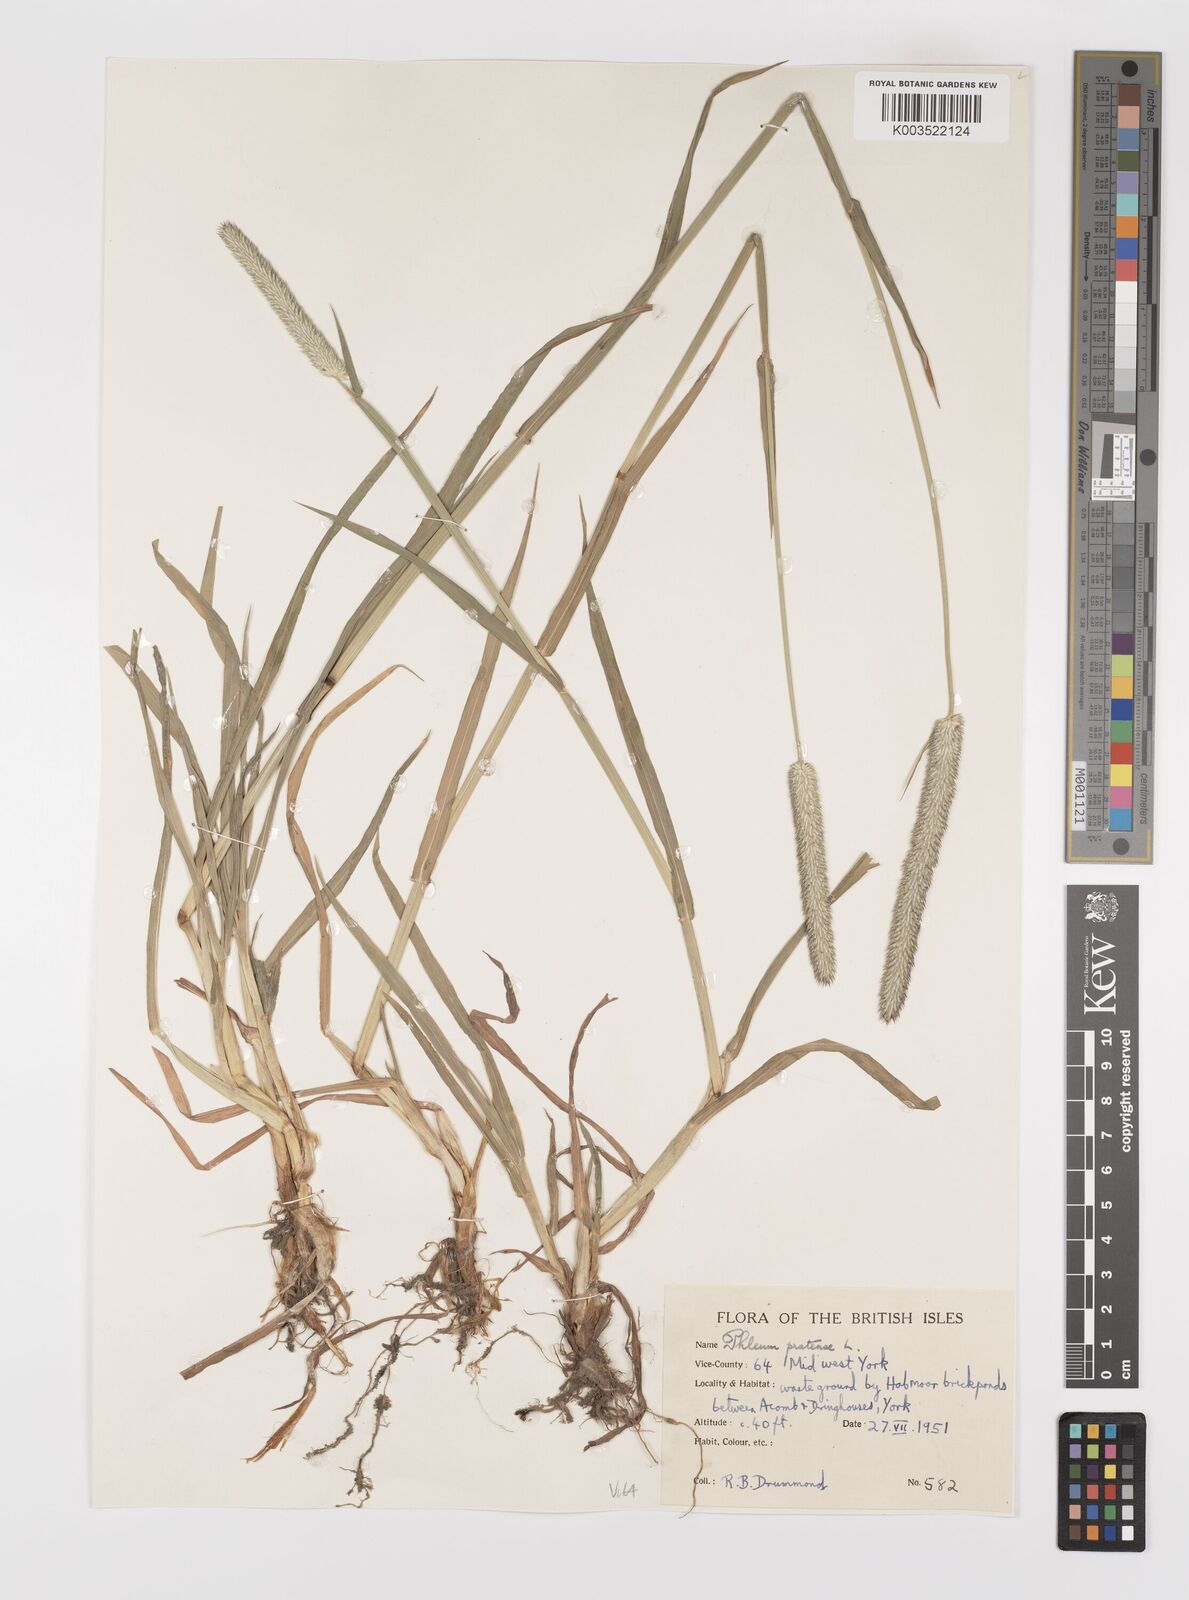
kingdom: Plantae
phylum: Tracheophyta
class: Liliopsida
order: Poales
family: Poaceae
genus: Phleum
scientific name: Phleum pratense
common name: Timothy grass
